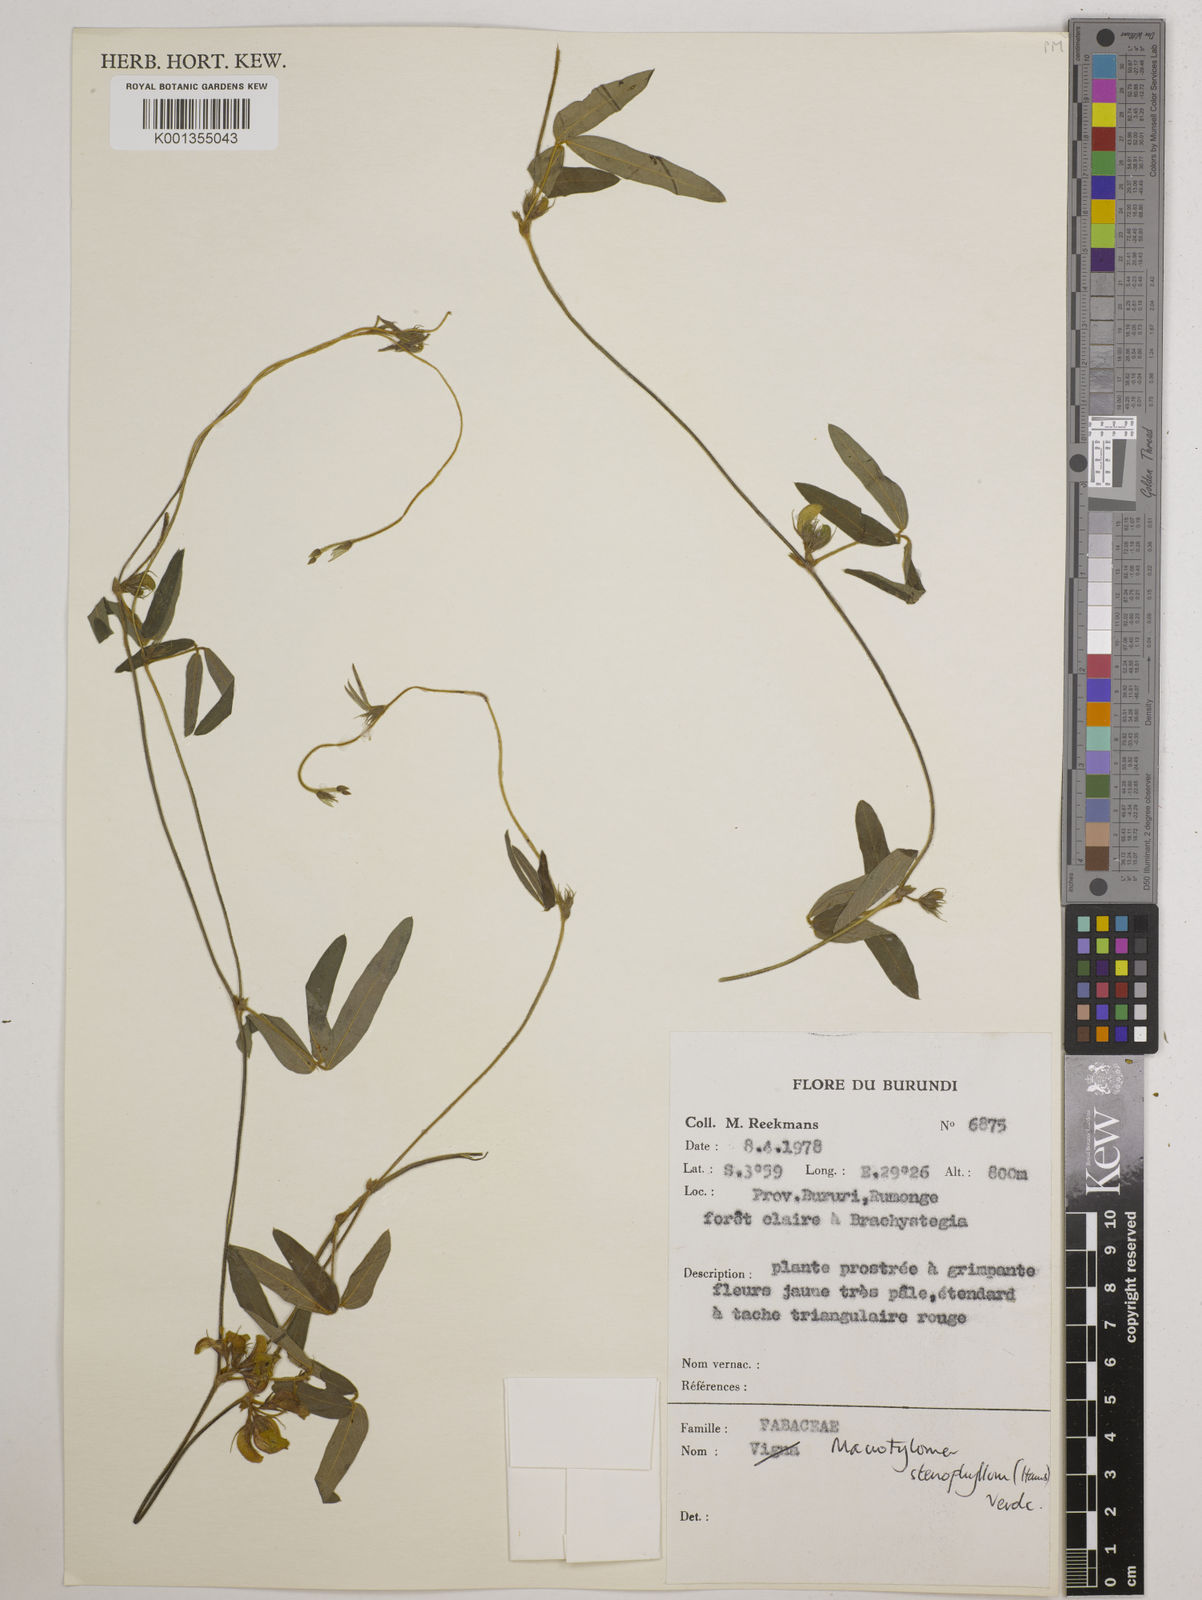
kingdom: Plantae
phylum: Tracheophyta
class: Magnoliopsida
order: Fabales
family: Fabaceae
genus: Macrotyloma
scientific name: Macrotyloma stenophyllum
